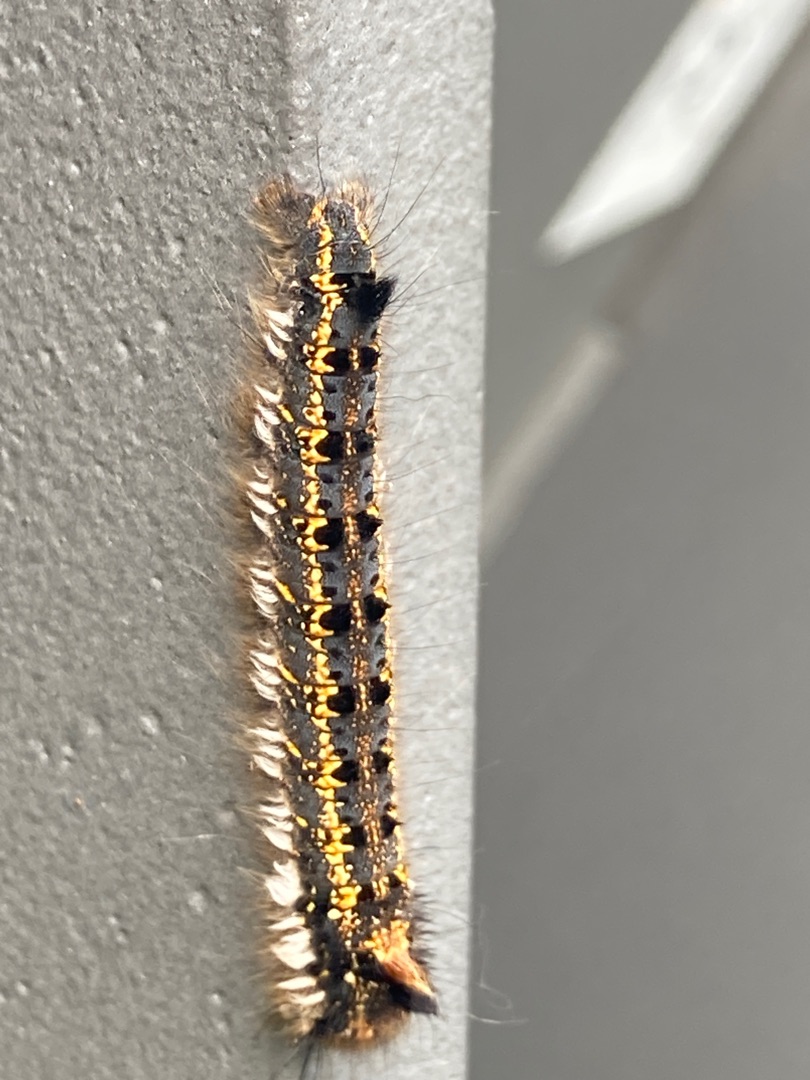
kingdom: Animalia
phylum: Arthropoda
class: Insecta
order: Lepidoptera
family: Lasiocampidae
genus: Euthrix
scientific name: Euthrix potatoria
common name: Græsspinder
